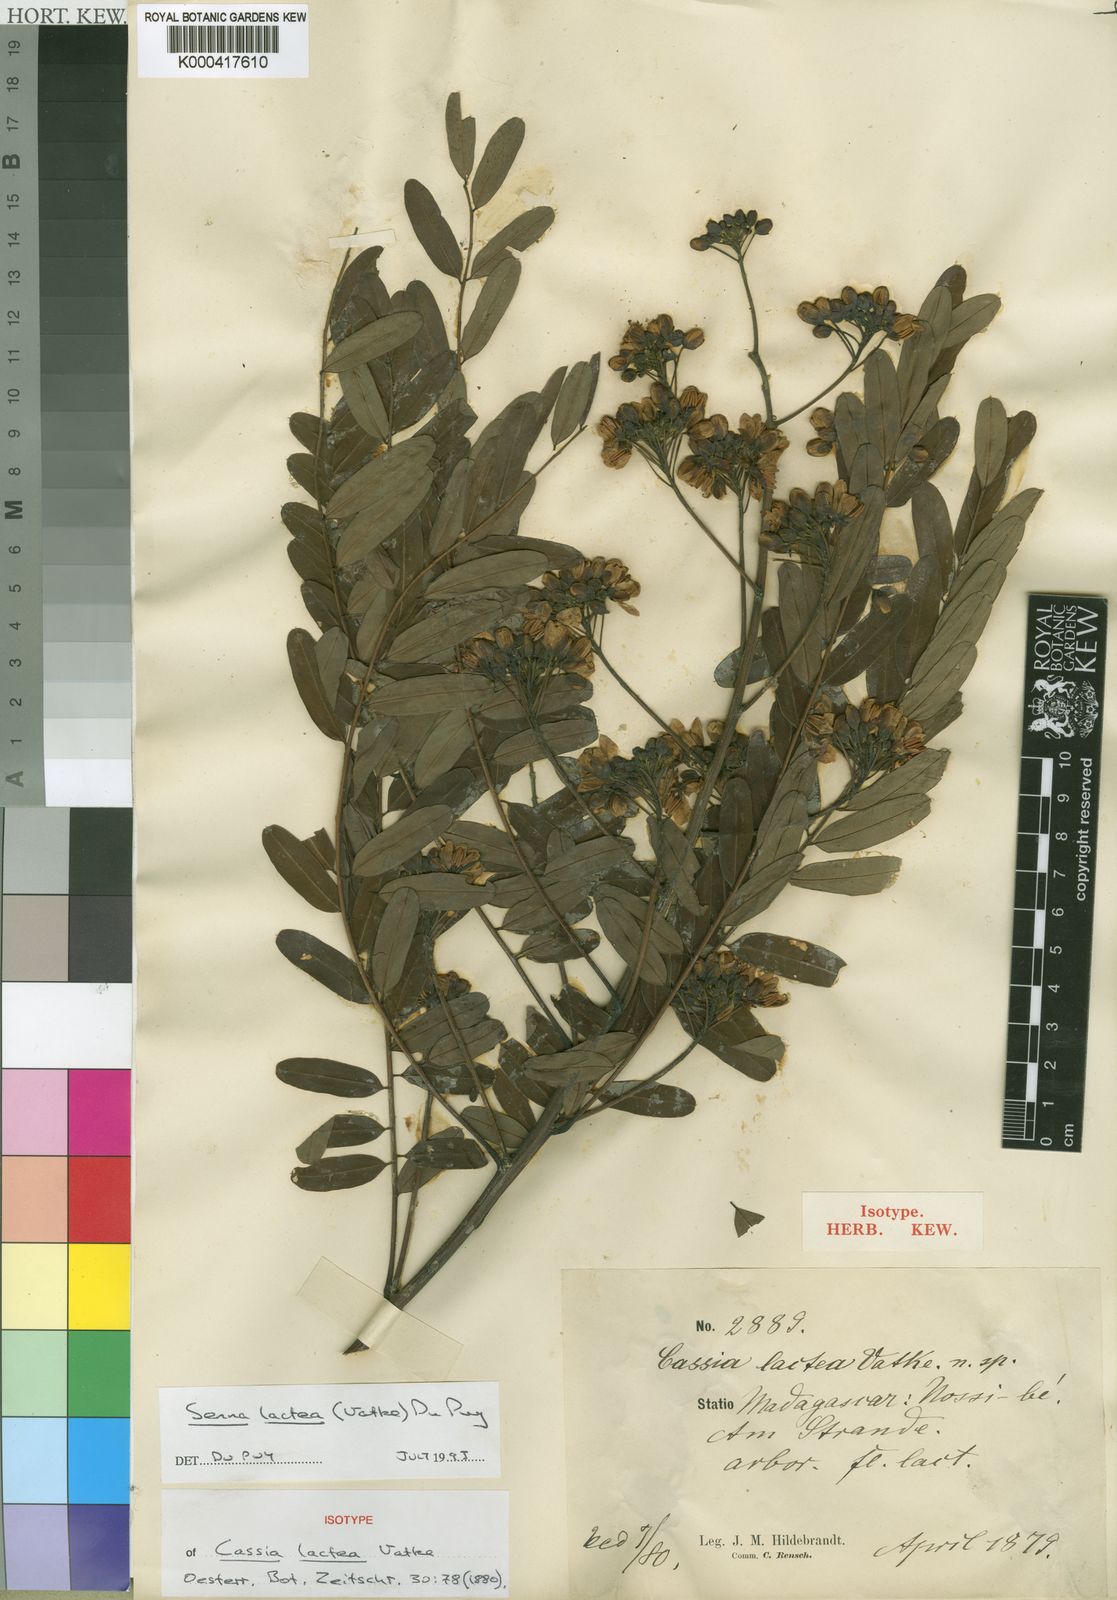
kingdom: Plantae
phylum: Tracheophyta
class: Magnoliopsida
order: Fabales
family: Fabaceae
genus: Senna
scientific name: Senna lactea
